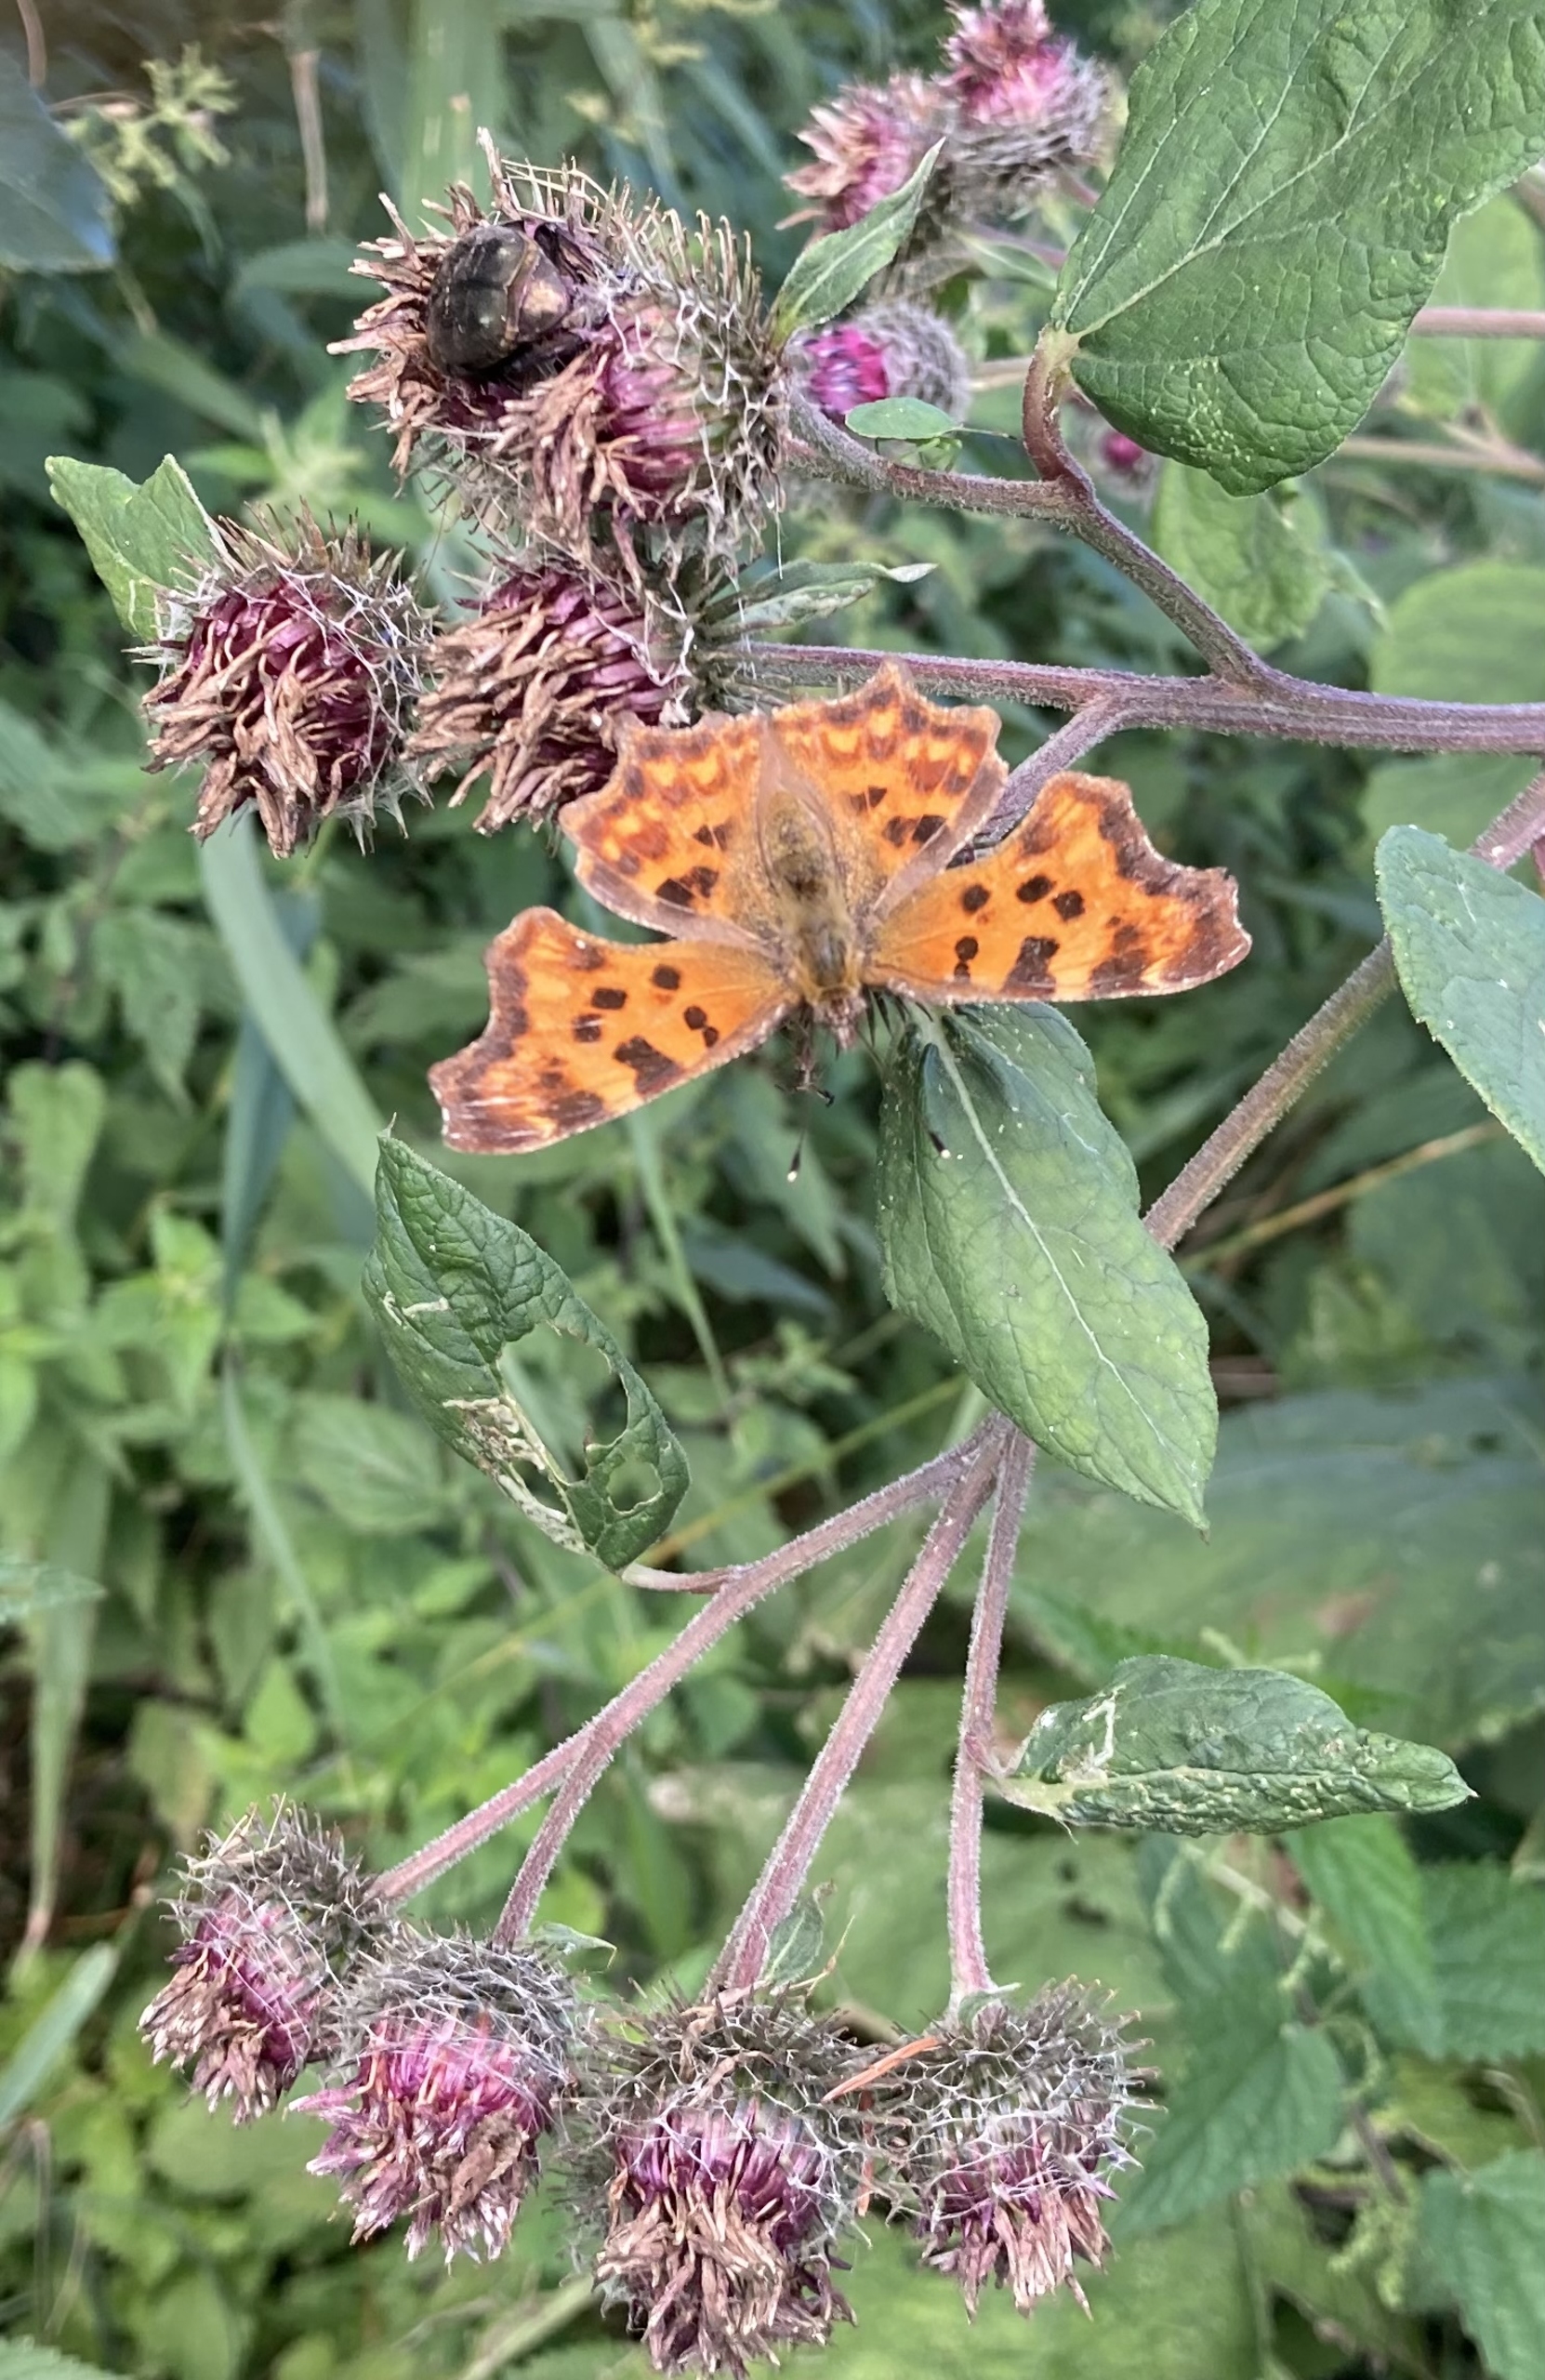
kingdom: Animalia
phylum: Arthropoda
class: Insecta
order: Lepidoptera
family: Nymphalidae
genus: Polygonia
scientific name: Polygonia c-album
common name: Det hvide C
